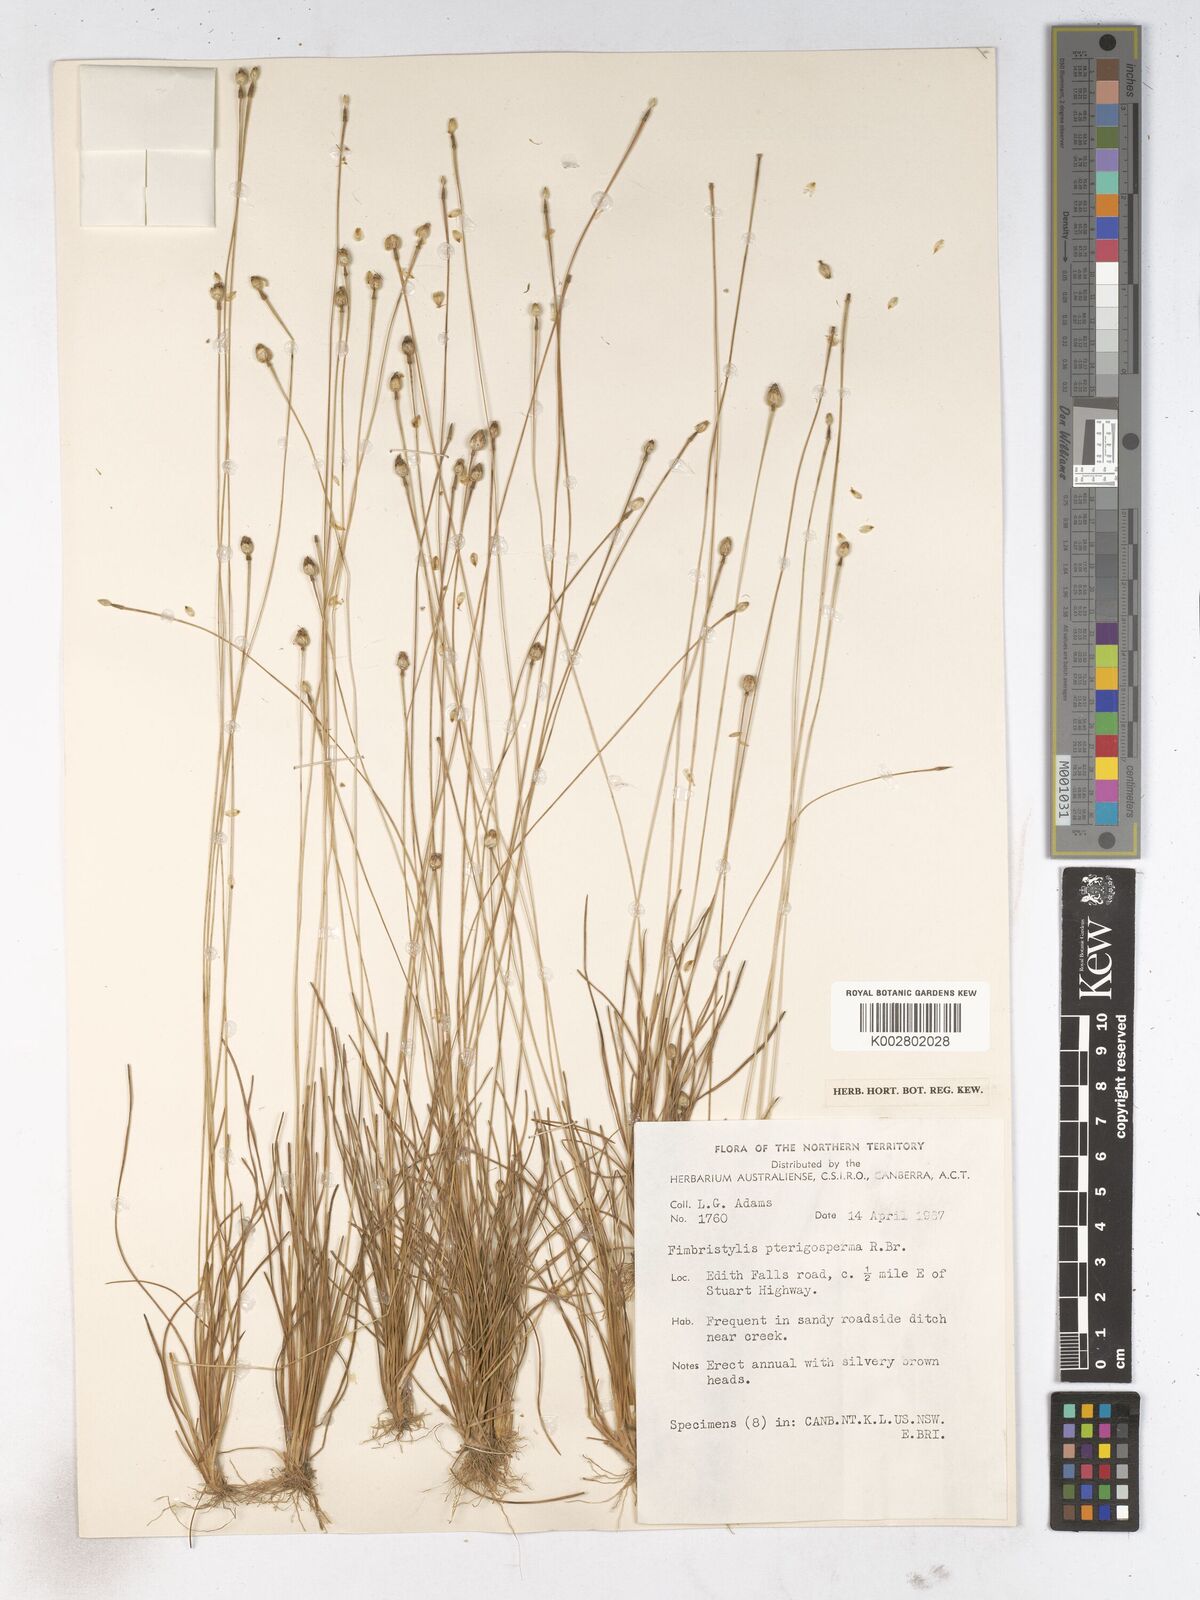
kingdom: Plantae
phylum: Tracheophyta
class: Liliopsida
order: Poales
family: Cyperaceae
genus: Fimbristylis
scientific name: Fimbristylis pterigosperma
